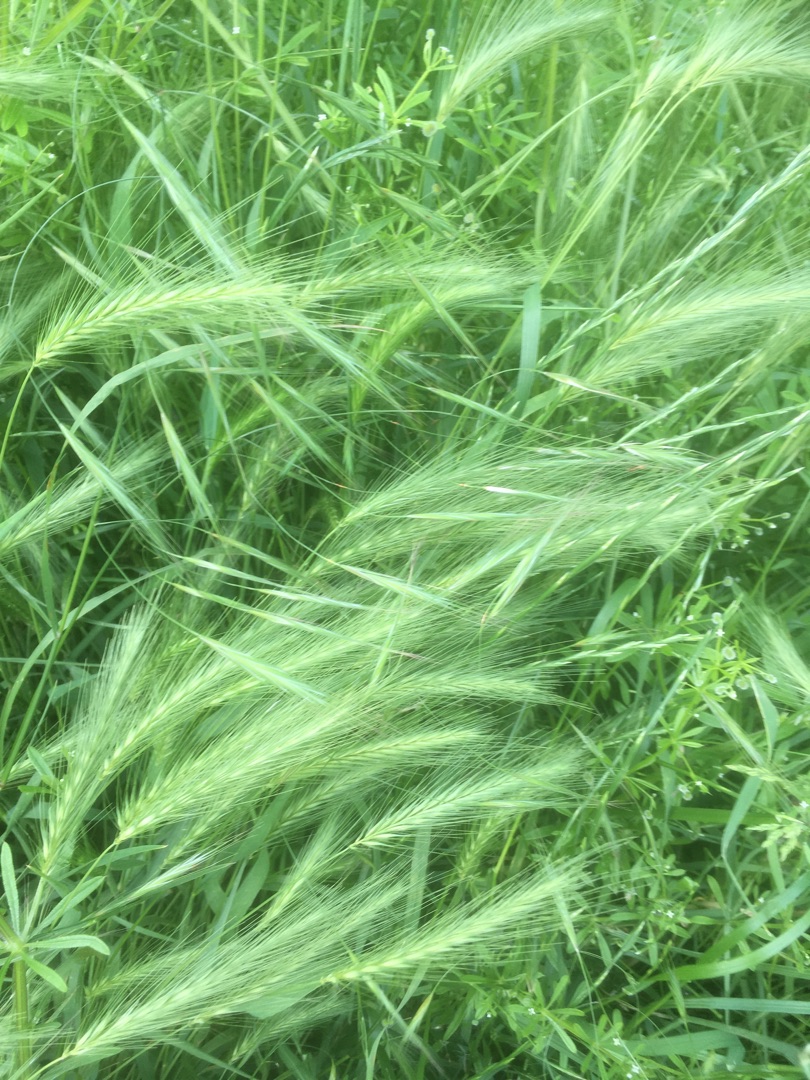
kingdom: Plantae
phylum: Tracheophyta
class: Liliopsida
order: Poales
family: Poaceae
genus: Hordeum
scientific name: Hordeum murinum
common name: Gold byg
